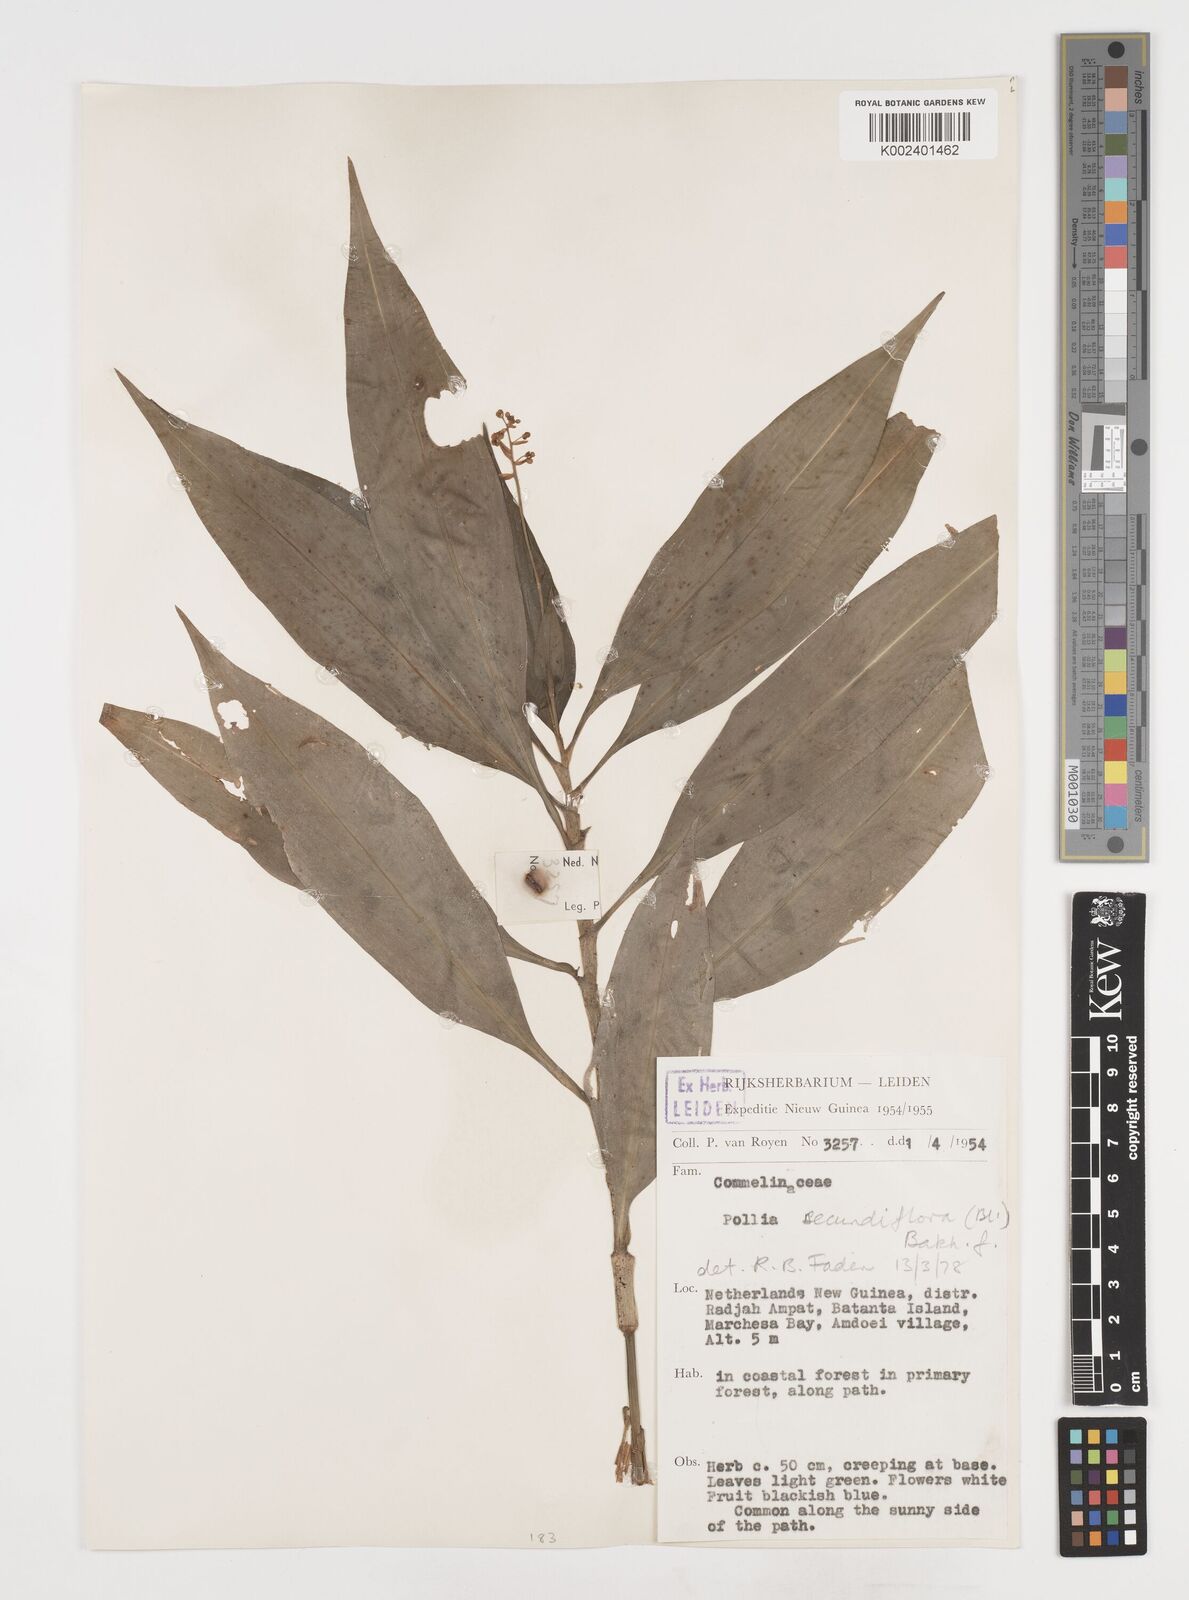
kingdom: Plantae
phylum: Tracheophyta
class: Liliopsida
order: Commelinales
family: Commelinaceae
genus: Pollia
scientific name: Pollia secundiflora
